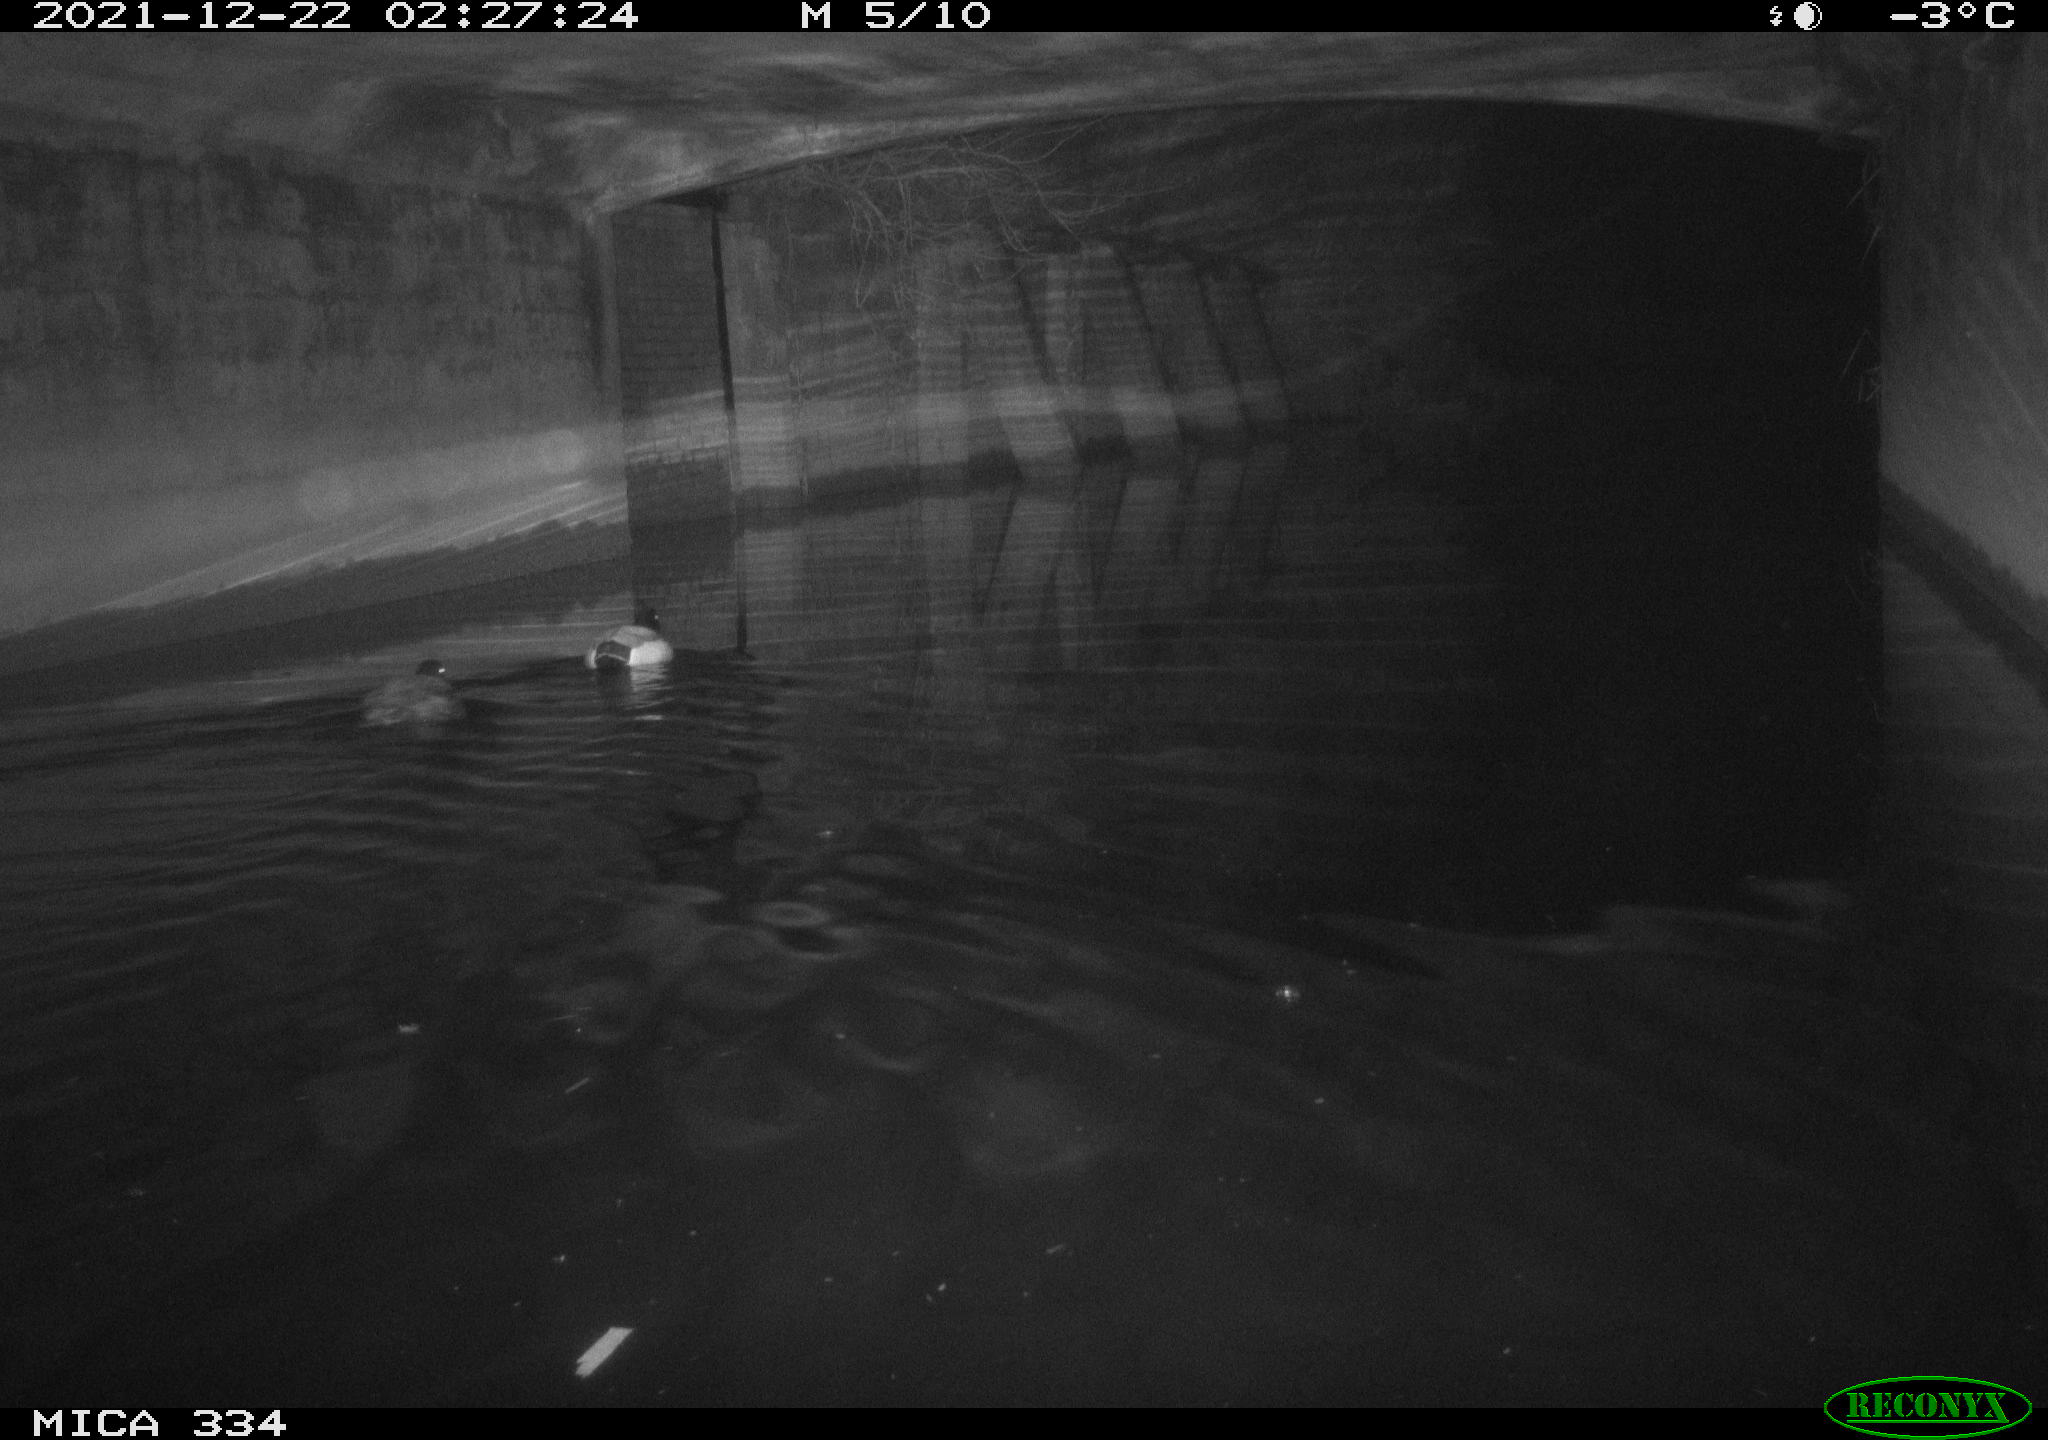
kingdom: Animalia
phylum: Chordata
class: Aves
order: Anseriformes
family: Anatidae
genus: Anas
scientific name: Anas platyrhynchos
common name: Mallard
